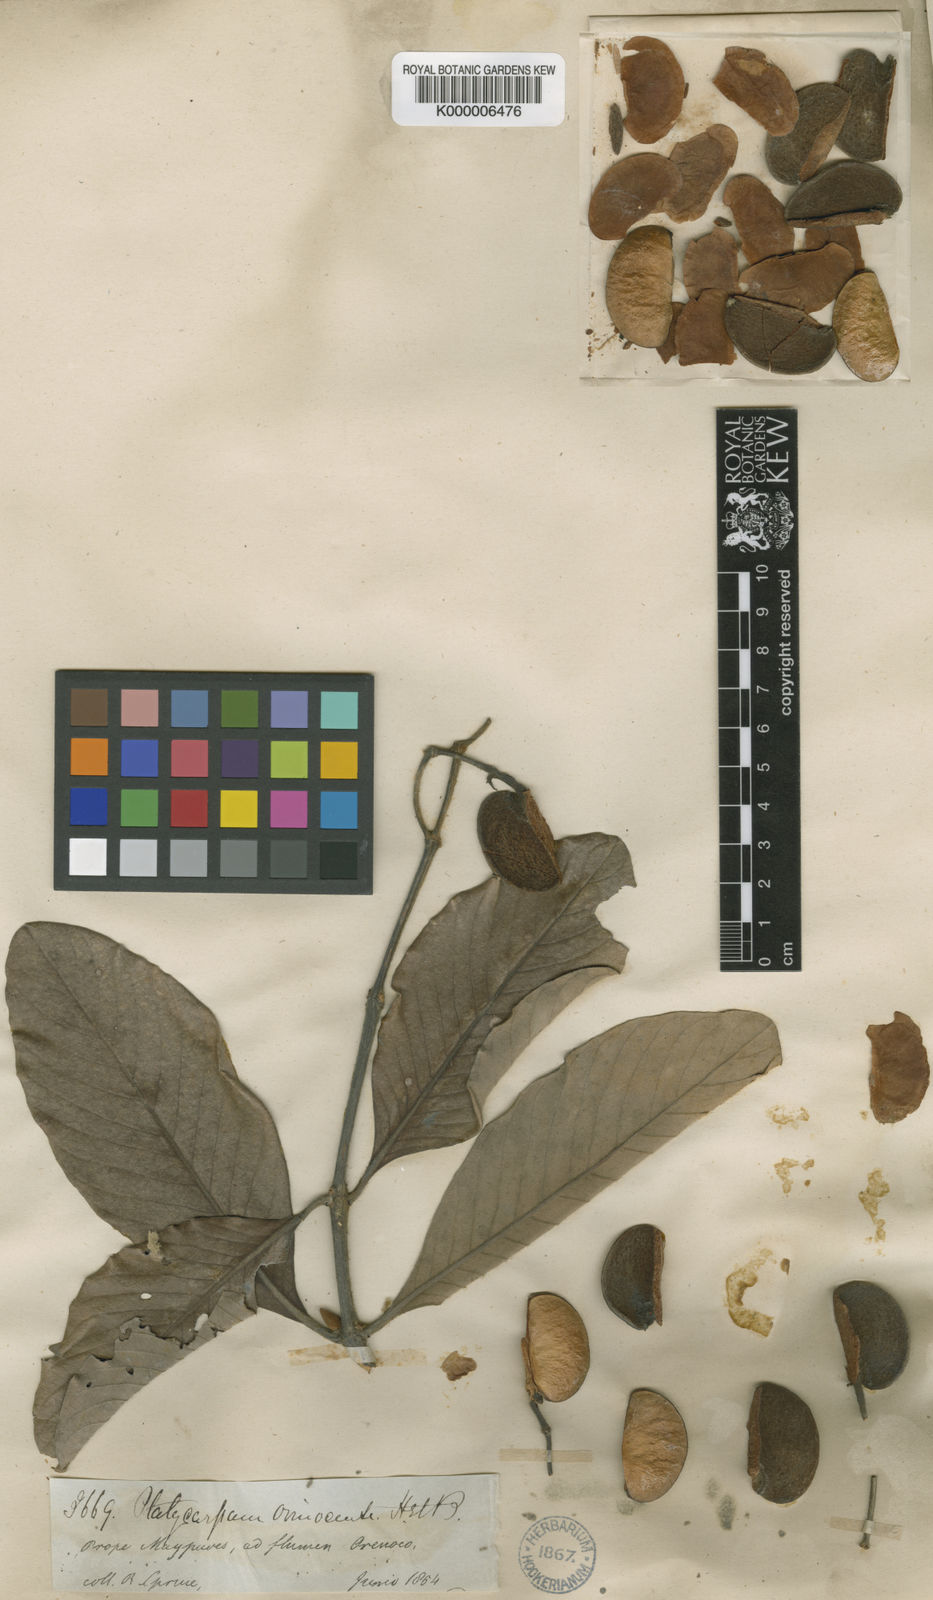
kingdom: Plantae
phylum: Tracheophyta
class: Magnoliopsida
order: Gentianales
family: Rubiaceae
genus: Platycarpum
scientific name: Platycarpum orinocense
